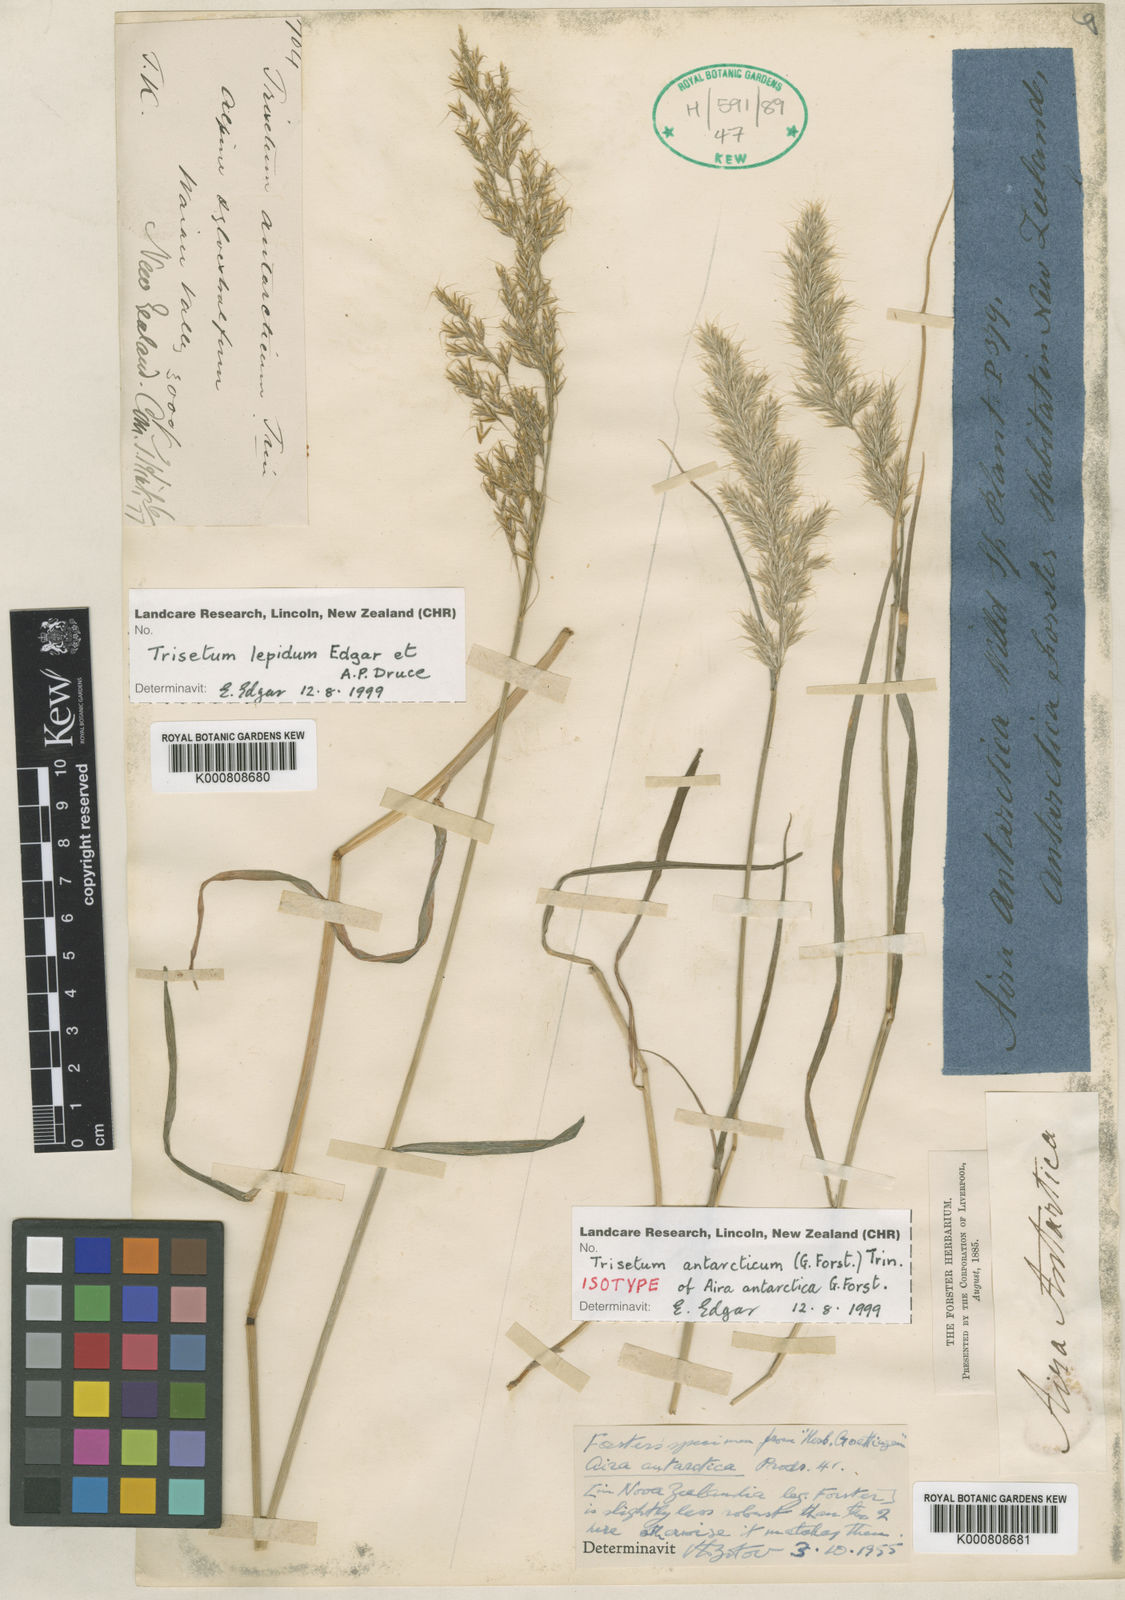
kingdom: Plantae
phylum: Tracheophyta
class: Liliopsida
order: Poales
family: Poaceae
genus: Koeleria
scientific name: Koeleria antarctica
